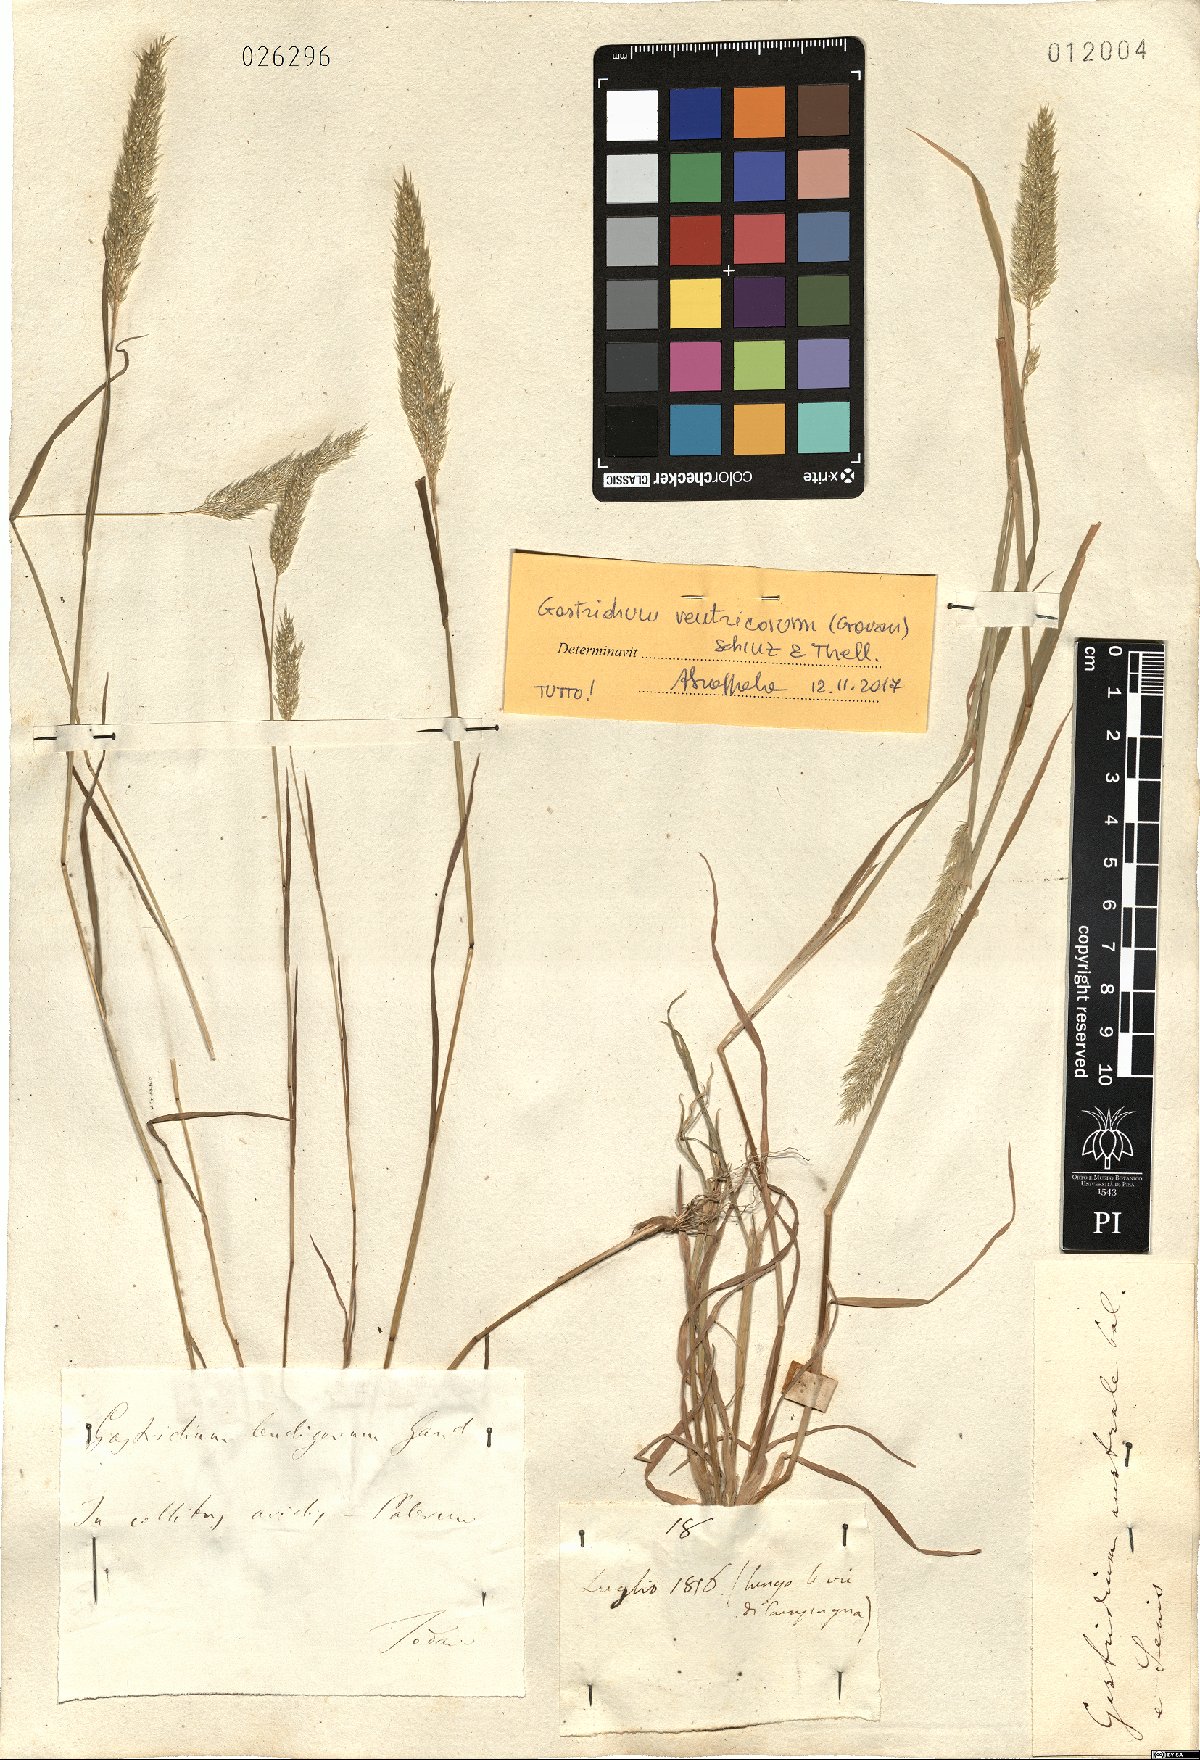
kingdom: Plantae
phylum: Tracheophyta
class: Liliopsida
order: Poales
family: Poaceae
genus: Gastridium
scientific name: Gastridium ventricosum
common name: Nit-grass
